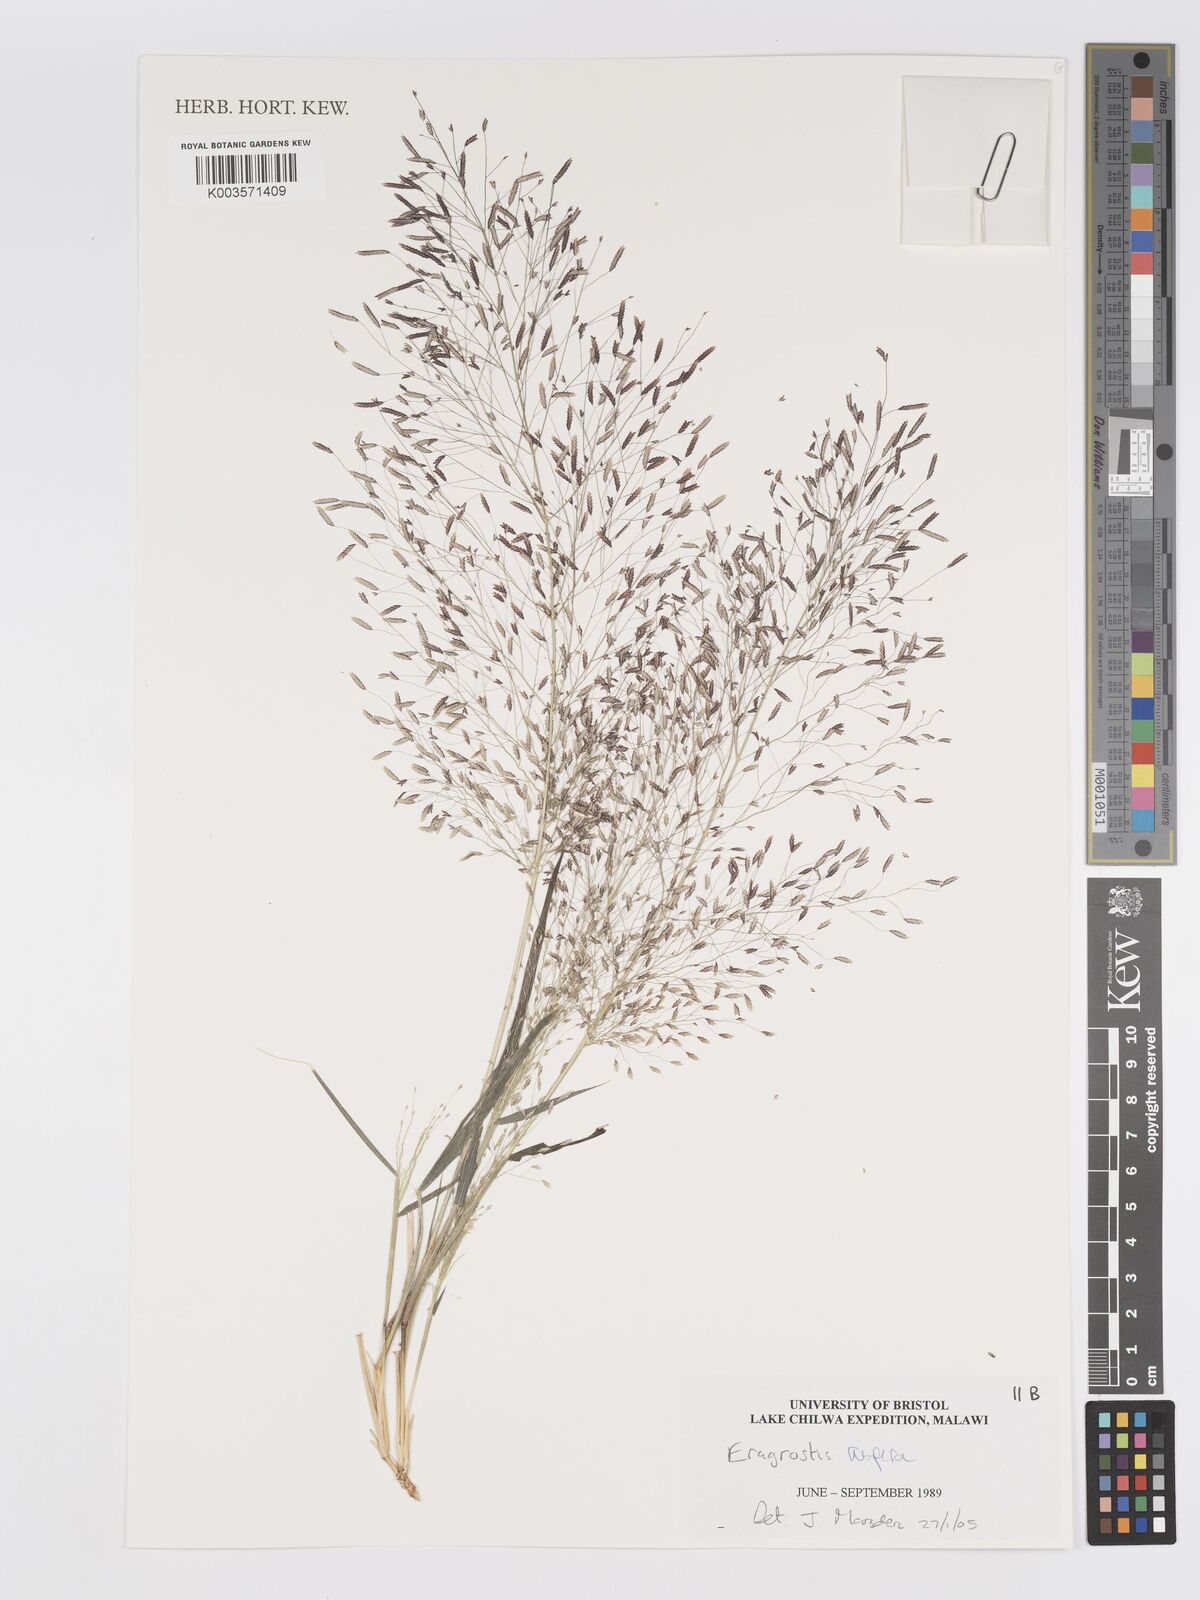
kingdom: Plantae
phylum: Tracheophyta
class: Liliopsida
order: Poales
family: Poaceae
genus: Eragrostis
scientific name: Eragrostis aspera
